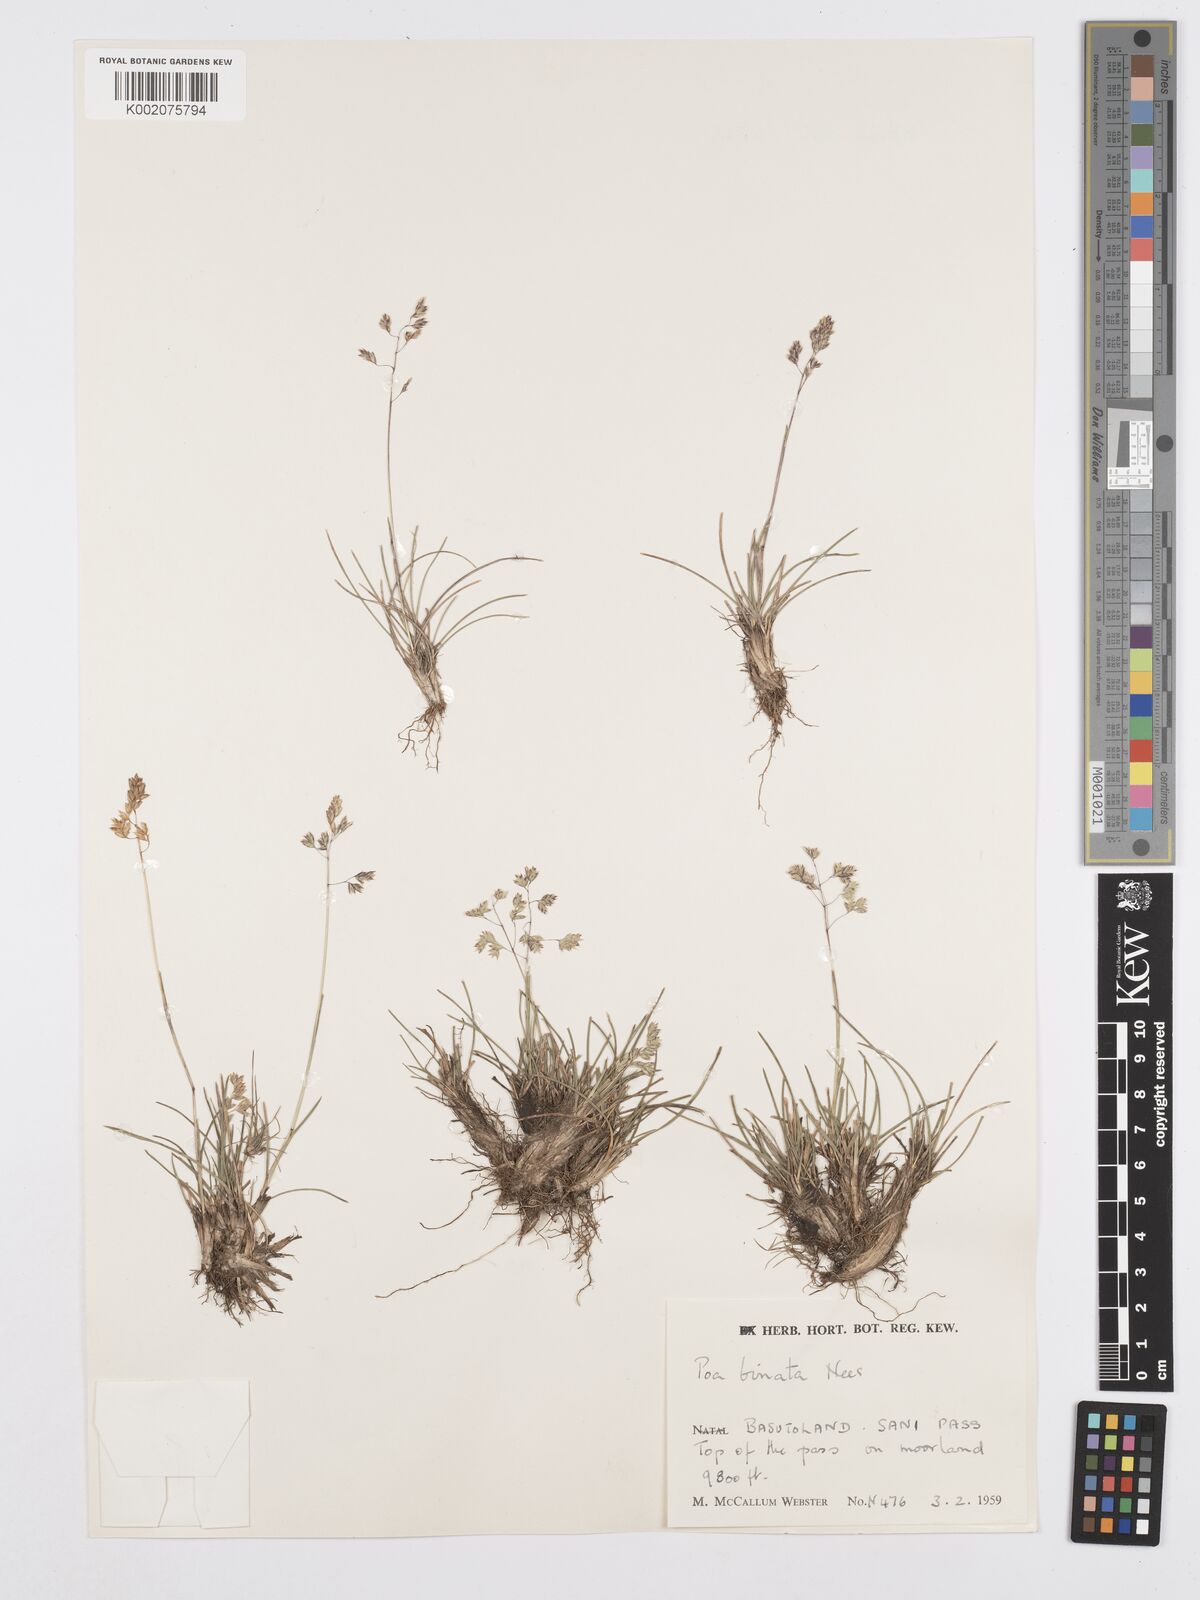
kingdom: Plantae
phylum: Tracheophyta
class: Liliopsida
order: Poales
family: Poaceae
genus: Poa
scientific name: Poa binata
